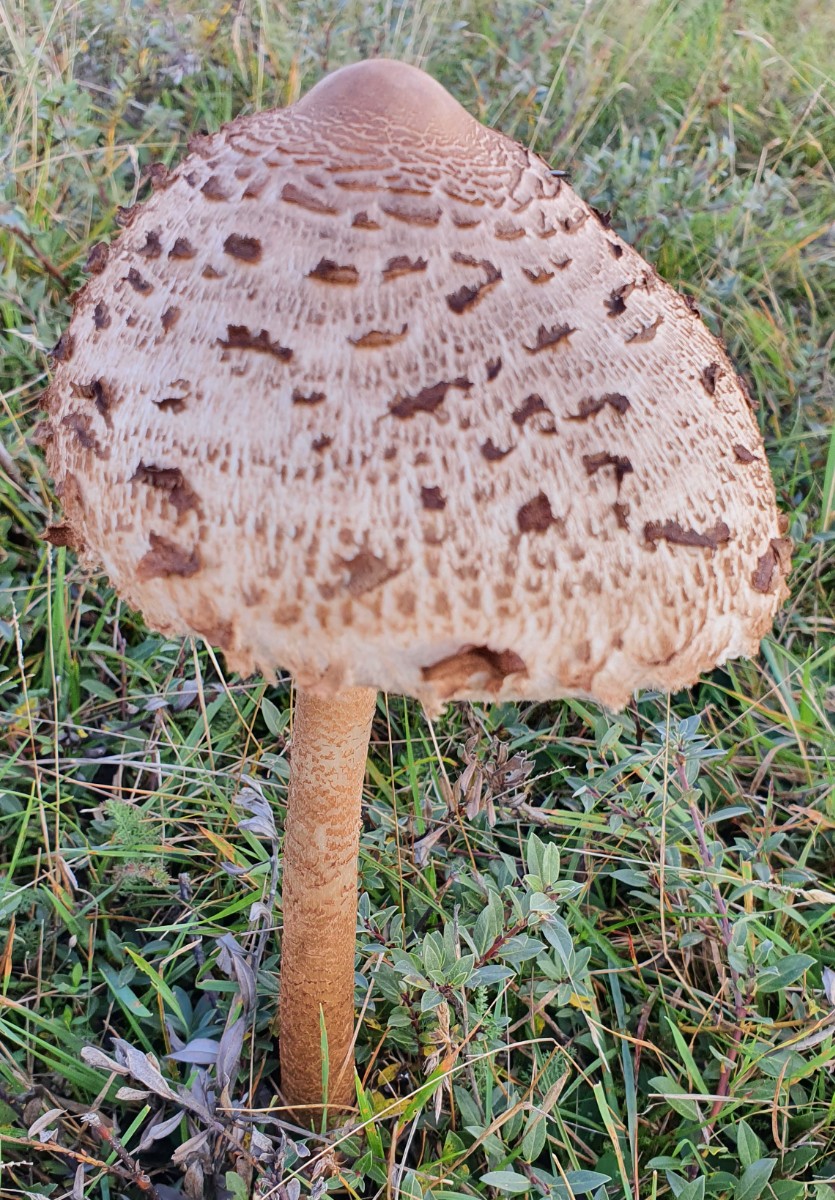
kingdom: Fungi
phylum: Basidiomycota
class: Agaricomycetes
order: Agaricales
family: Agaricaceae
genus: Macrolepiota
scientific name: Macrolepiota procera
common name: stor kæmpeparasolhat
